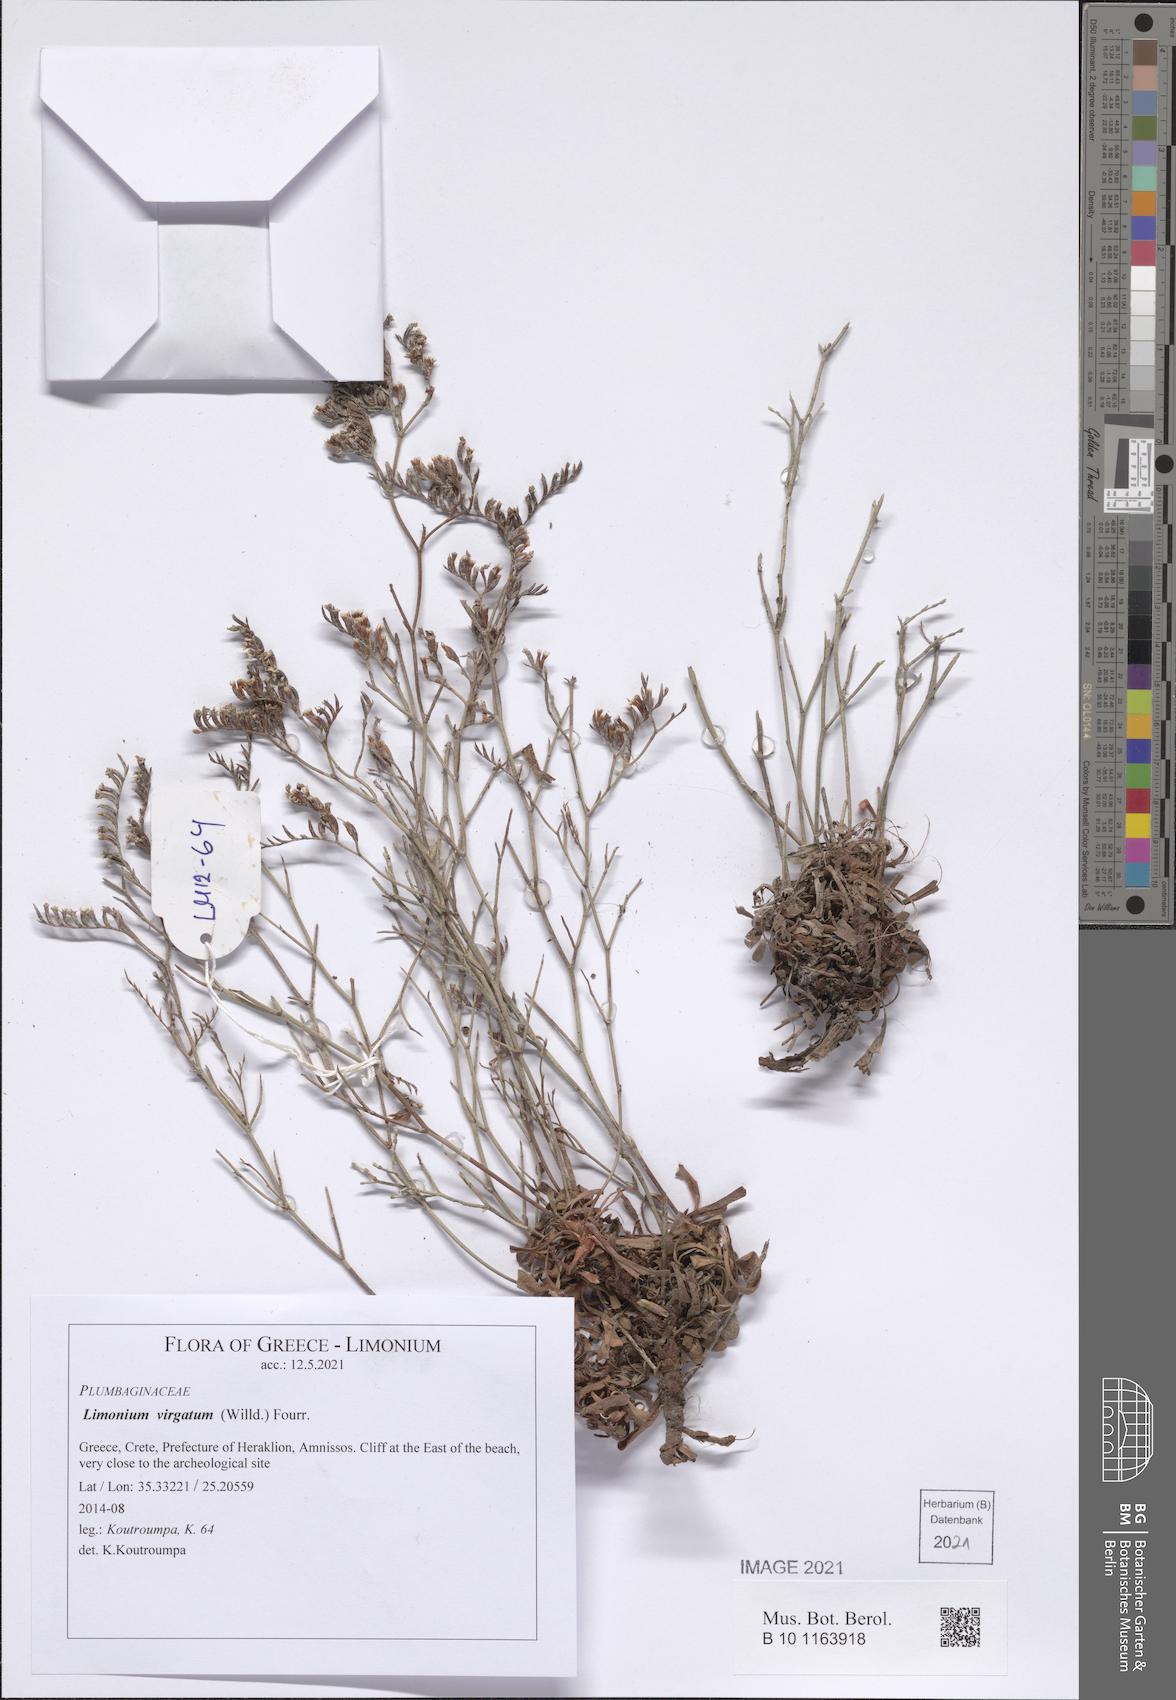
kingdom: Plantae
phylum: Tracheophyta
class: Magnoliopsida
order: Caryophyllales
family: Plumbaginaceae
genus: Limonium
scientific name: Limonium virgatum
